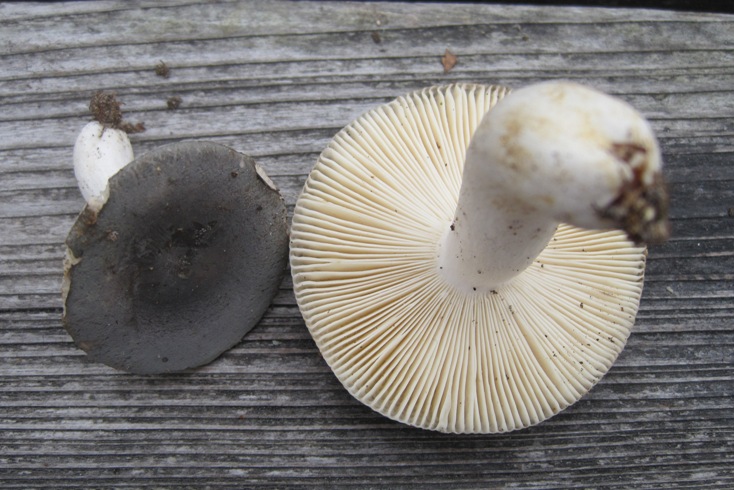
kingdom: Fungi
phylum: Basidiomycota
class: Agaricomycetes
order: Russulales
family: Russulaceae
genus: Russula
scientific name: Russula parazurea
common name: blågrå skørhat
